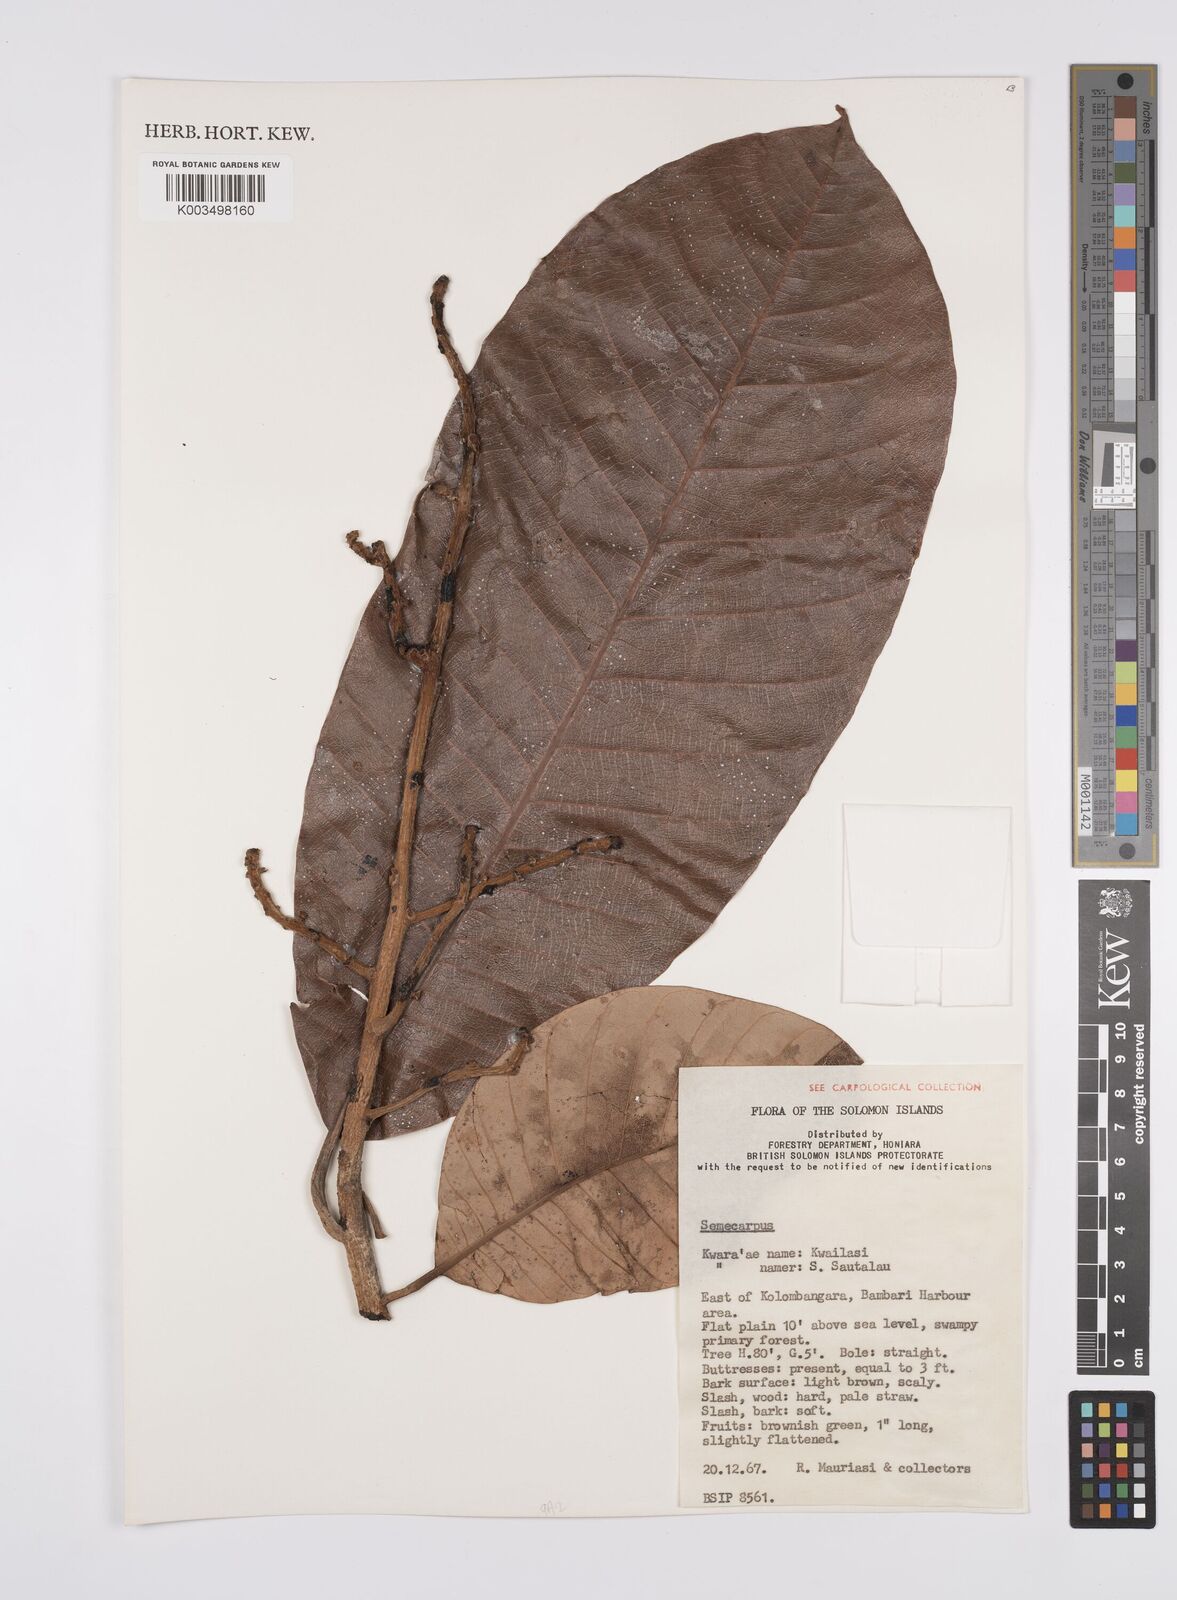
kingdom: Plantae
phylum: Tracheophyta
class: Magnoliopsida
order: Sapindales
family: Anacardiaceae
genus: Semecarpus
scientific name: Semecarpus
